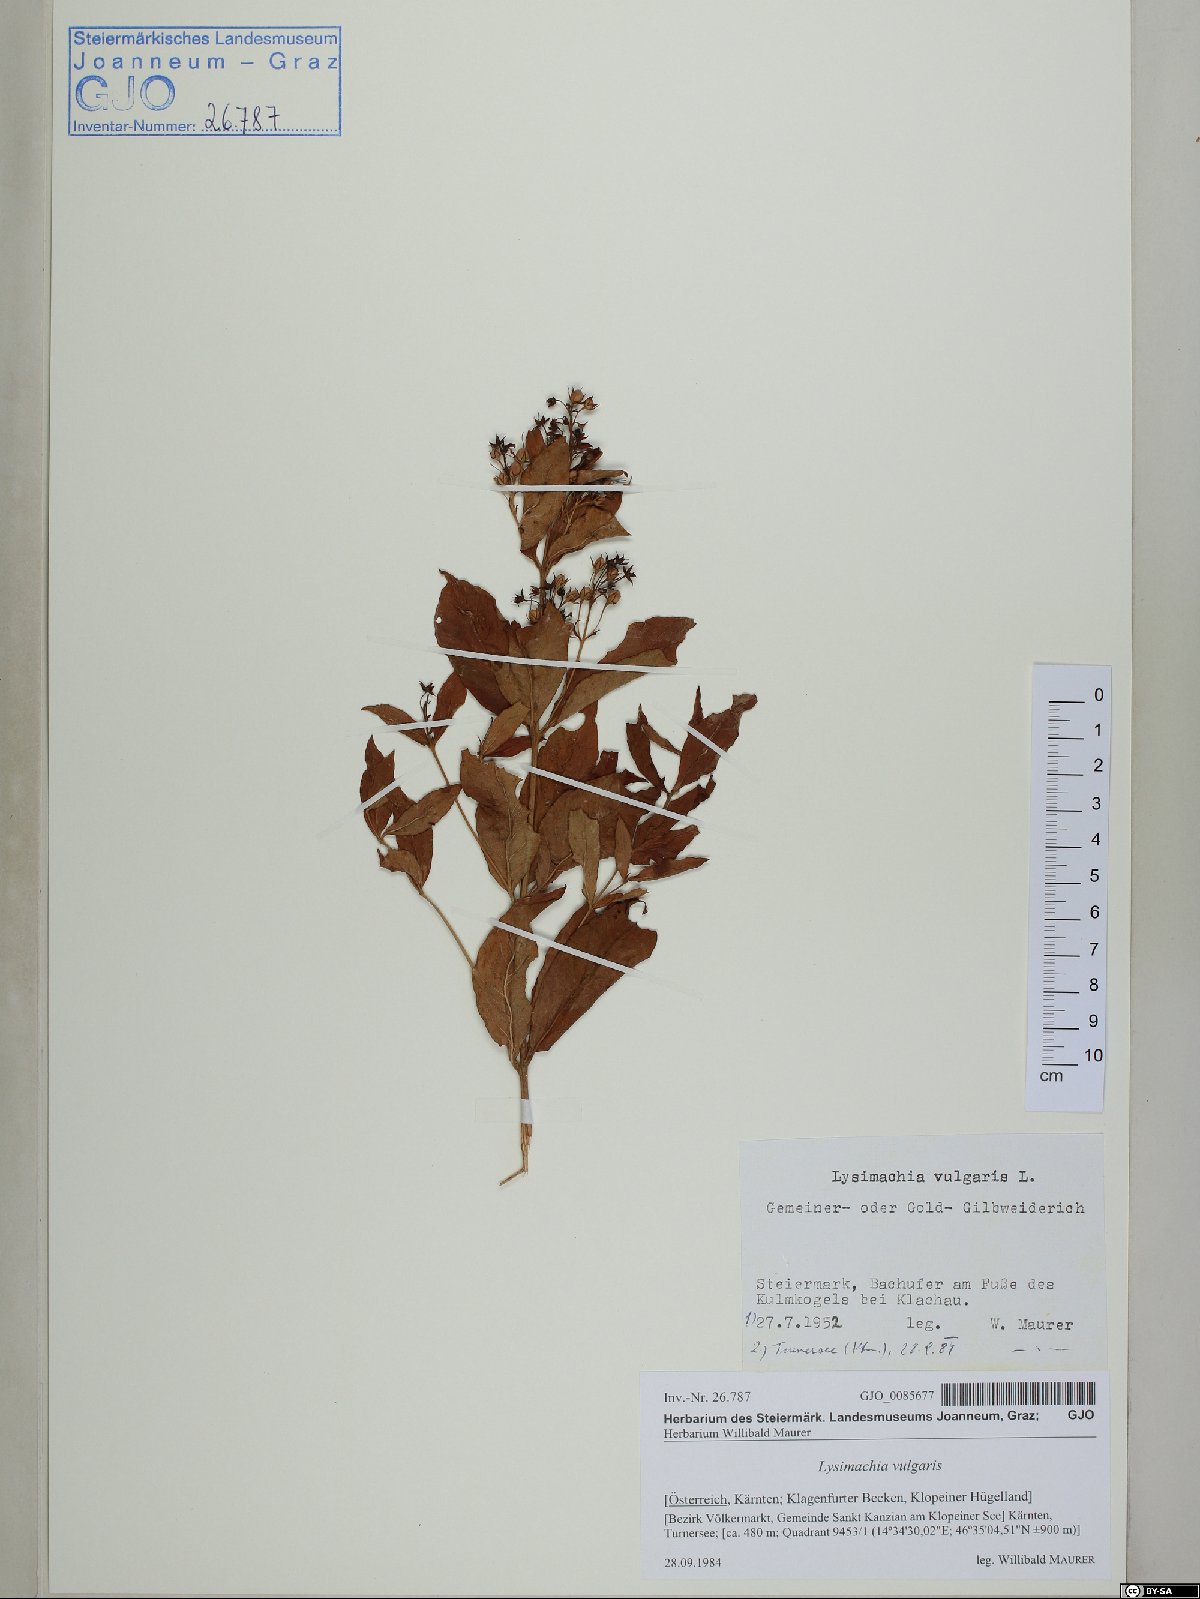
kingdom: Plantae
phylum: Tracheophyta
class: Magnoliopsida
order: Ericales
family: Primulaceae
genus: Lysimachia
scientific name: Lysimachia vulgaris
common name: Yellow loosestrife
